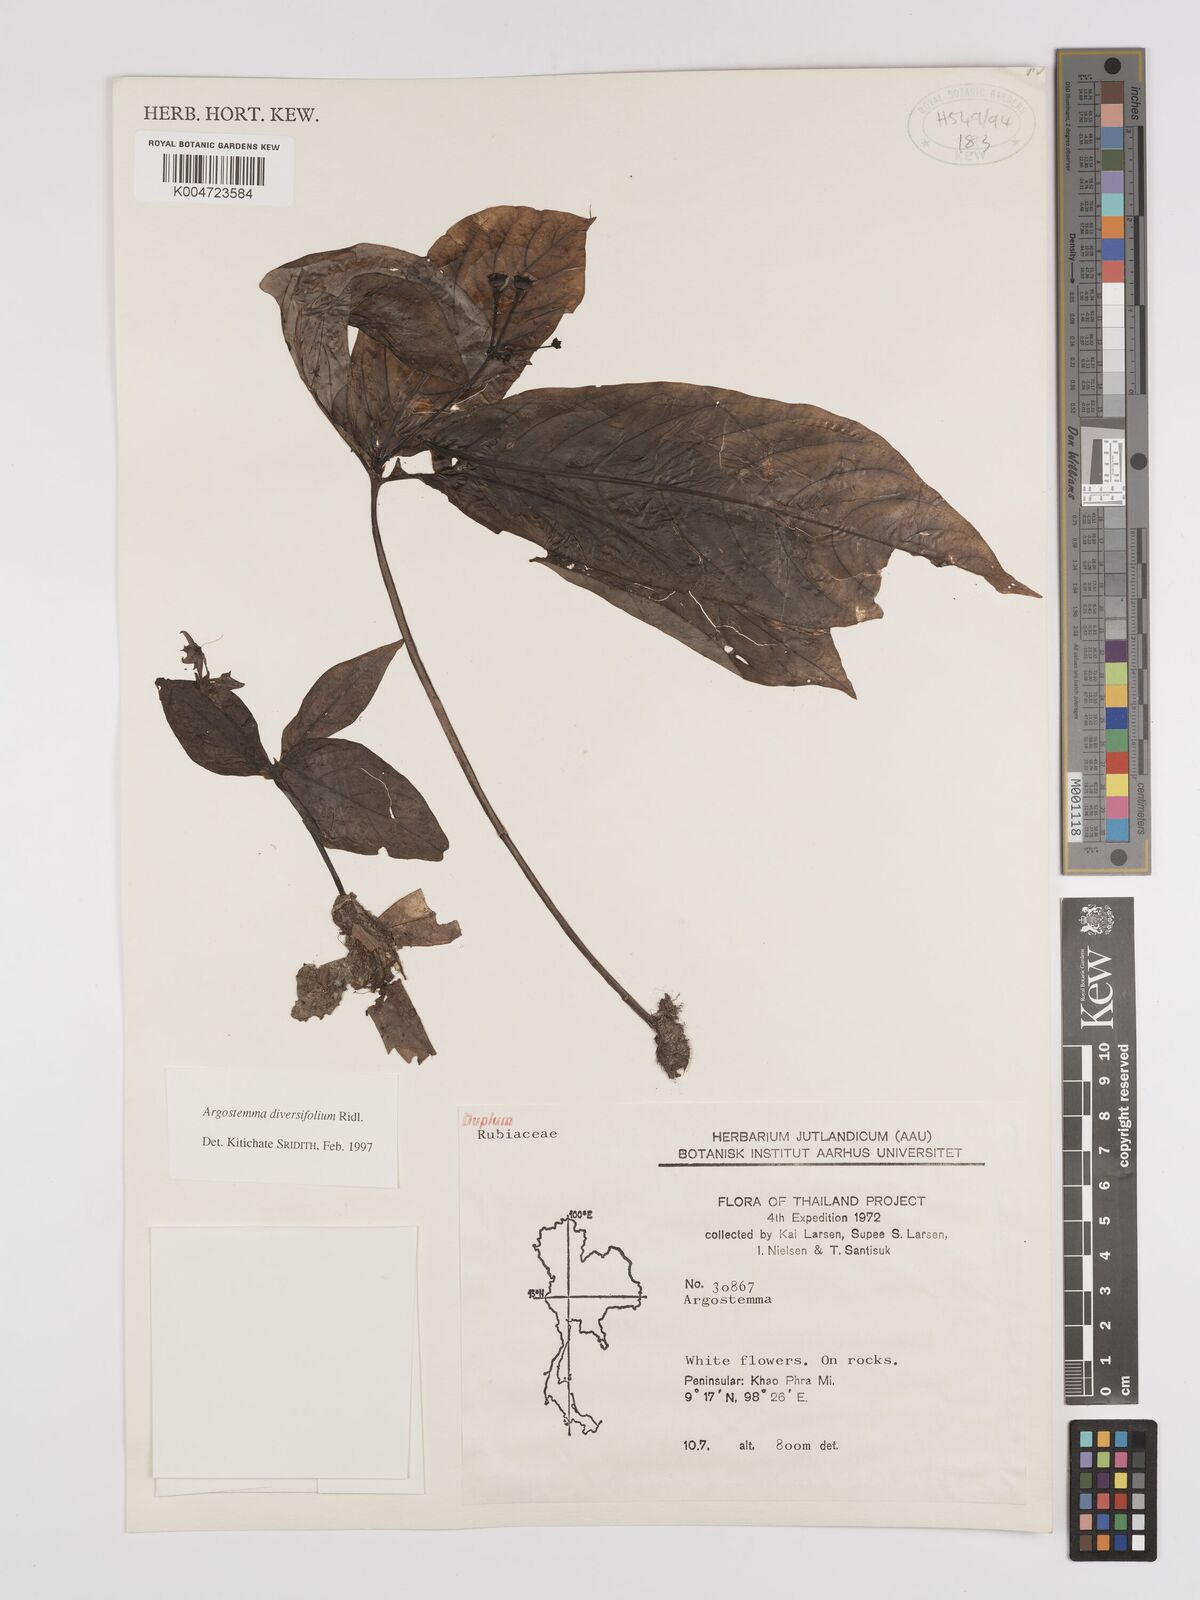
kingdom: Plantae
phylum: Tracheophyta
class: Magnoliopsida
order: Gentianales
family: Rubiaceae
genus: Argostemma
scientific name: Argostemma diversifolium
